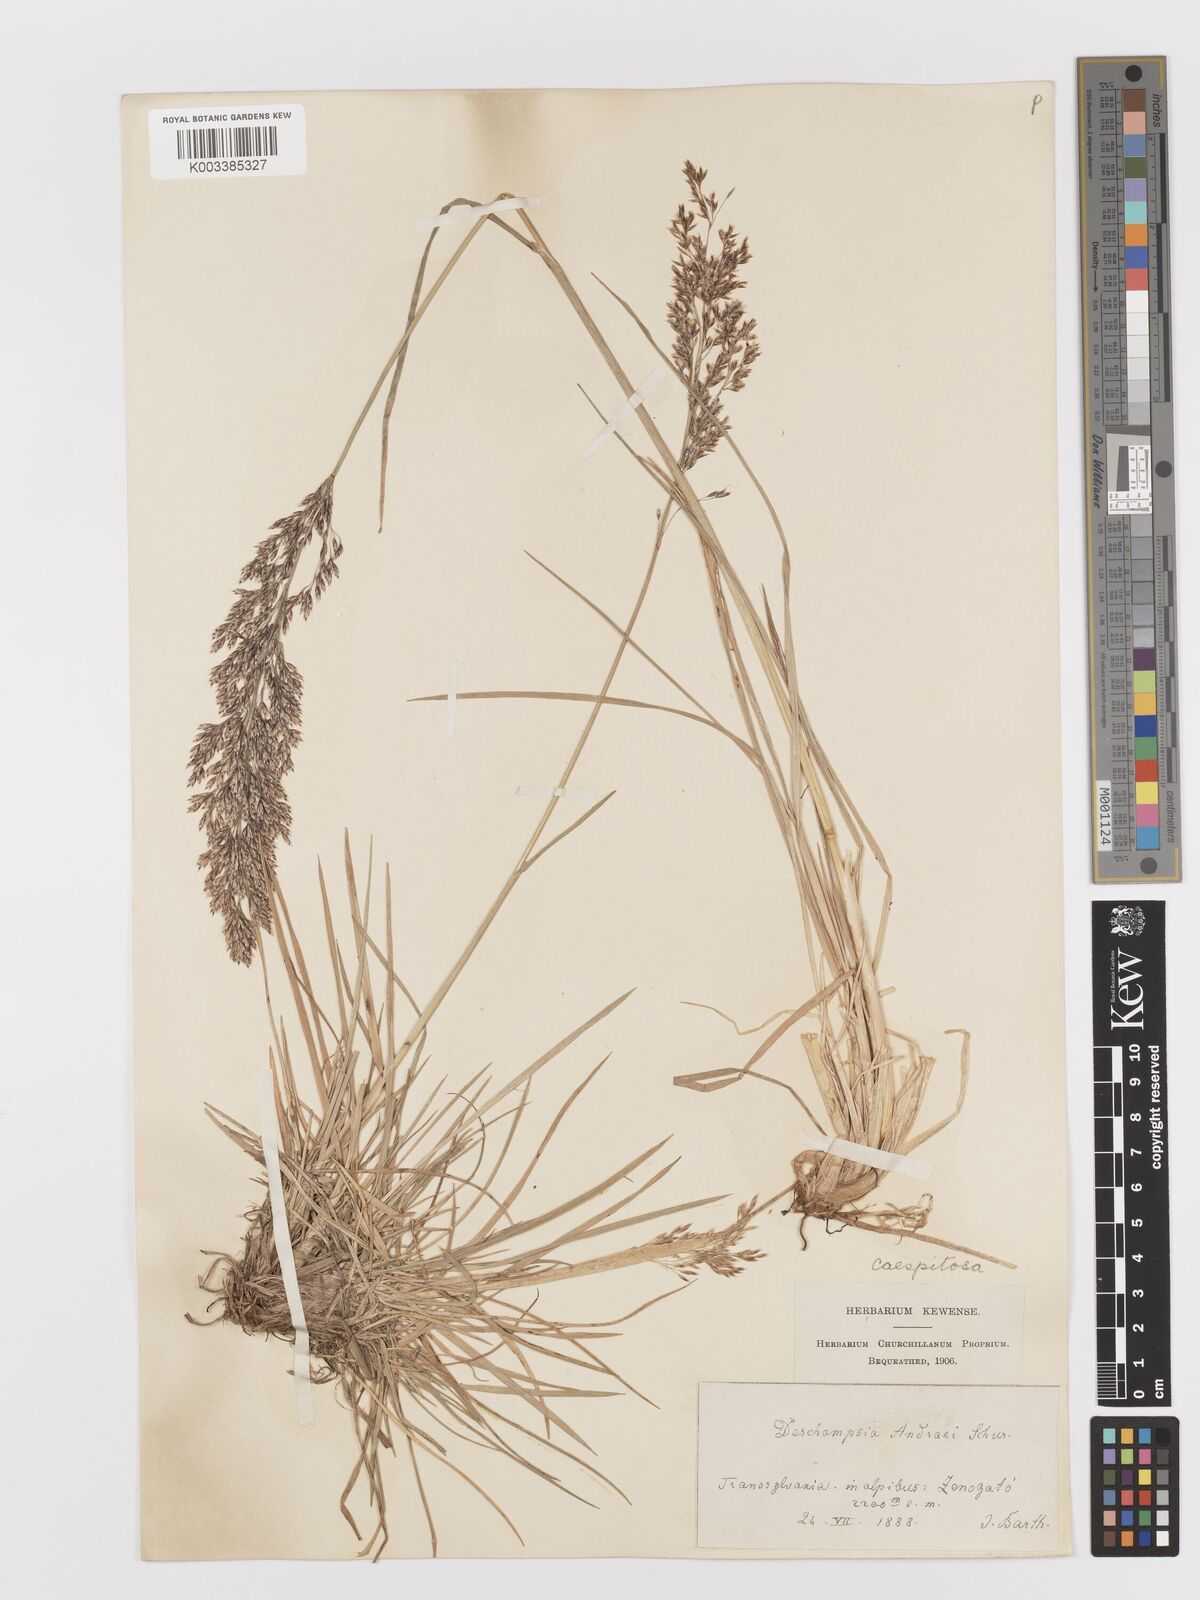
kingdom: Plantae
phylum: Tracheophyta
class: Liliopsida
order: Poales
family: Poaceae
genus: Deschampsia
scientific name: Deschampsia cespitosa
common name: Tufted hair-grass
